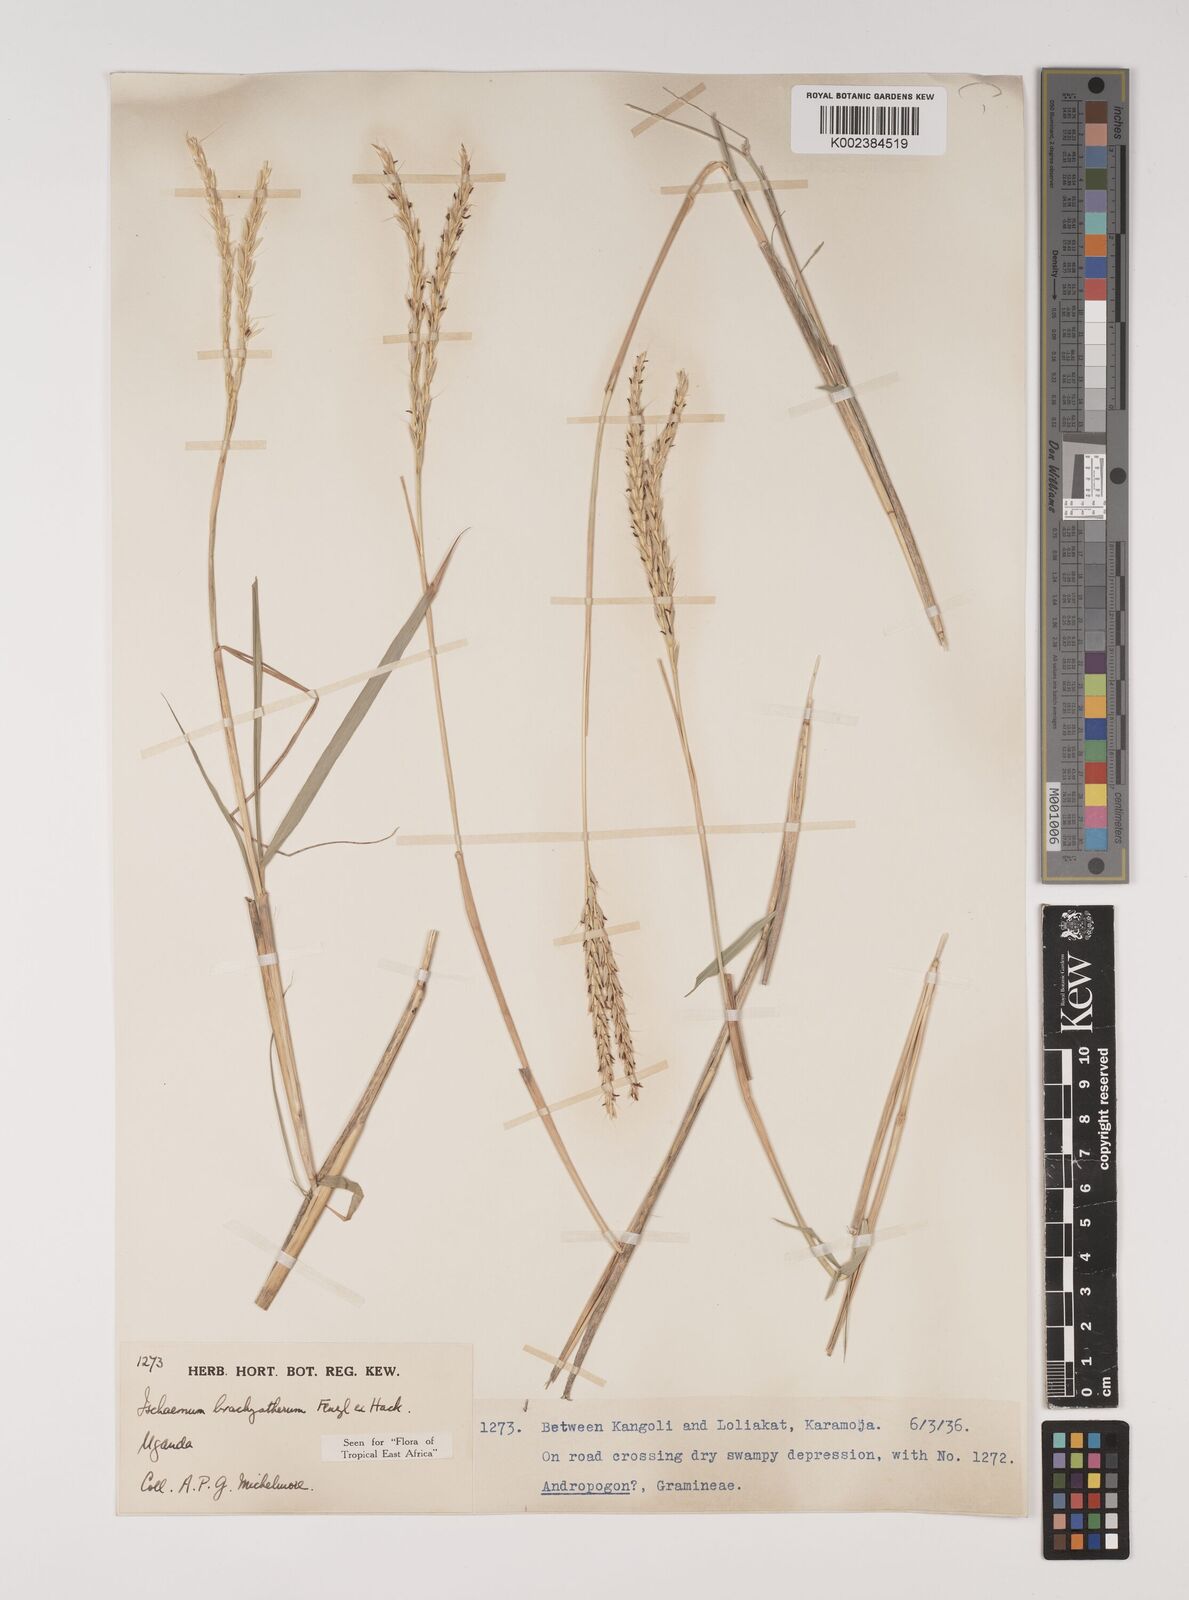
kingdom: Plantae
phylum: Tracheophyta
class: Liliopsida
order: Poales
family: Poaceae
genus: Ischaemum
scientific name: Ischaemum afrum
